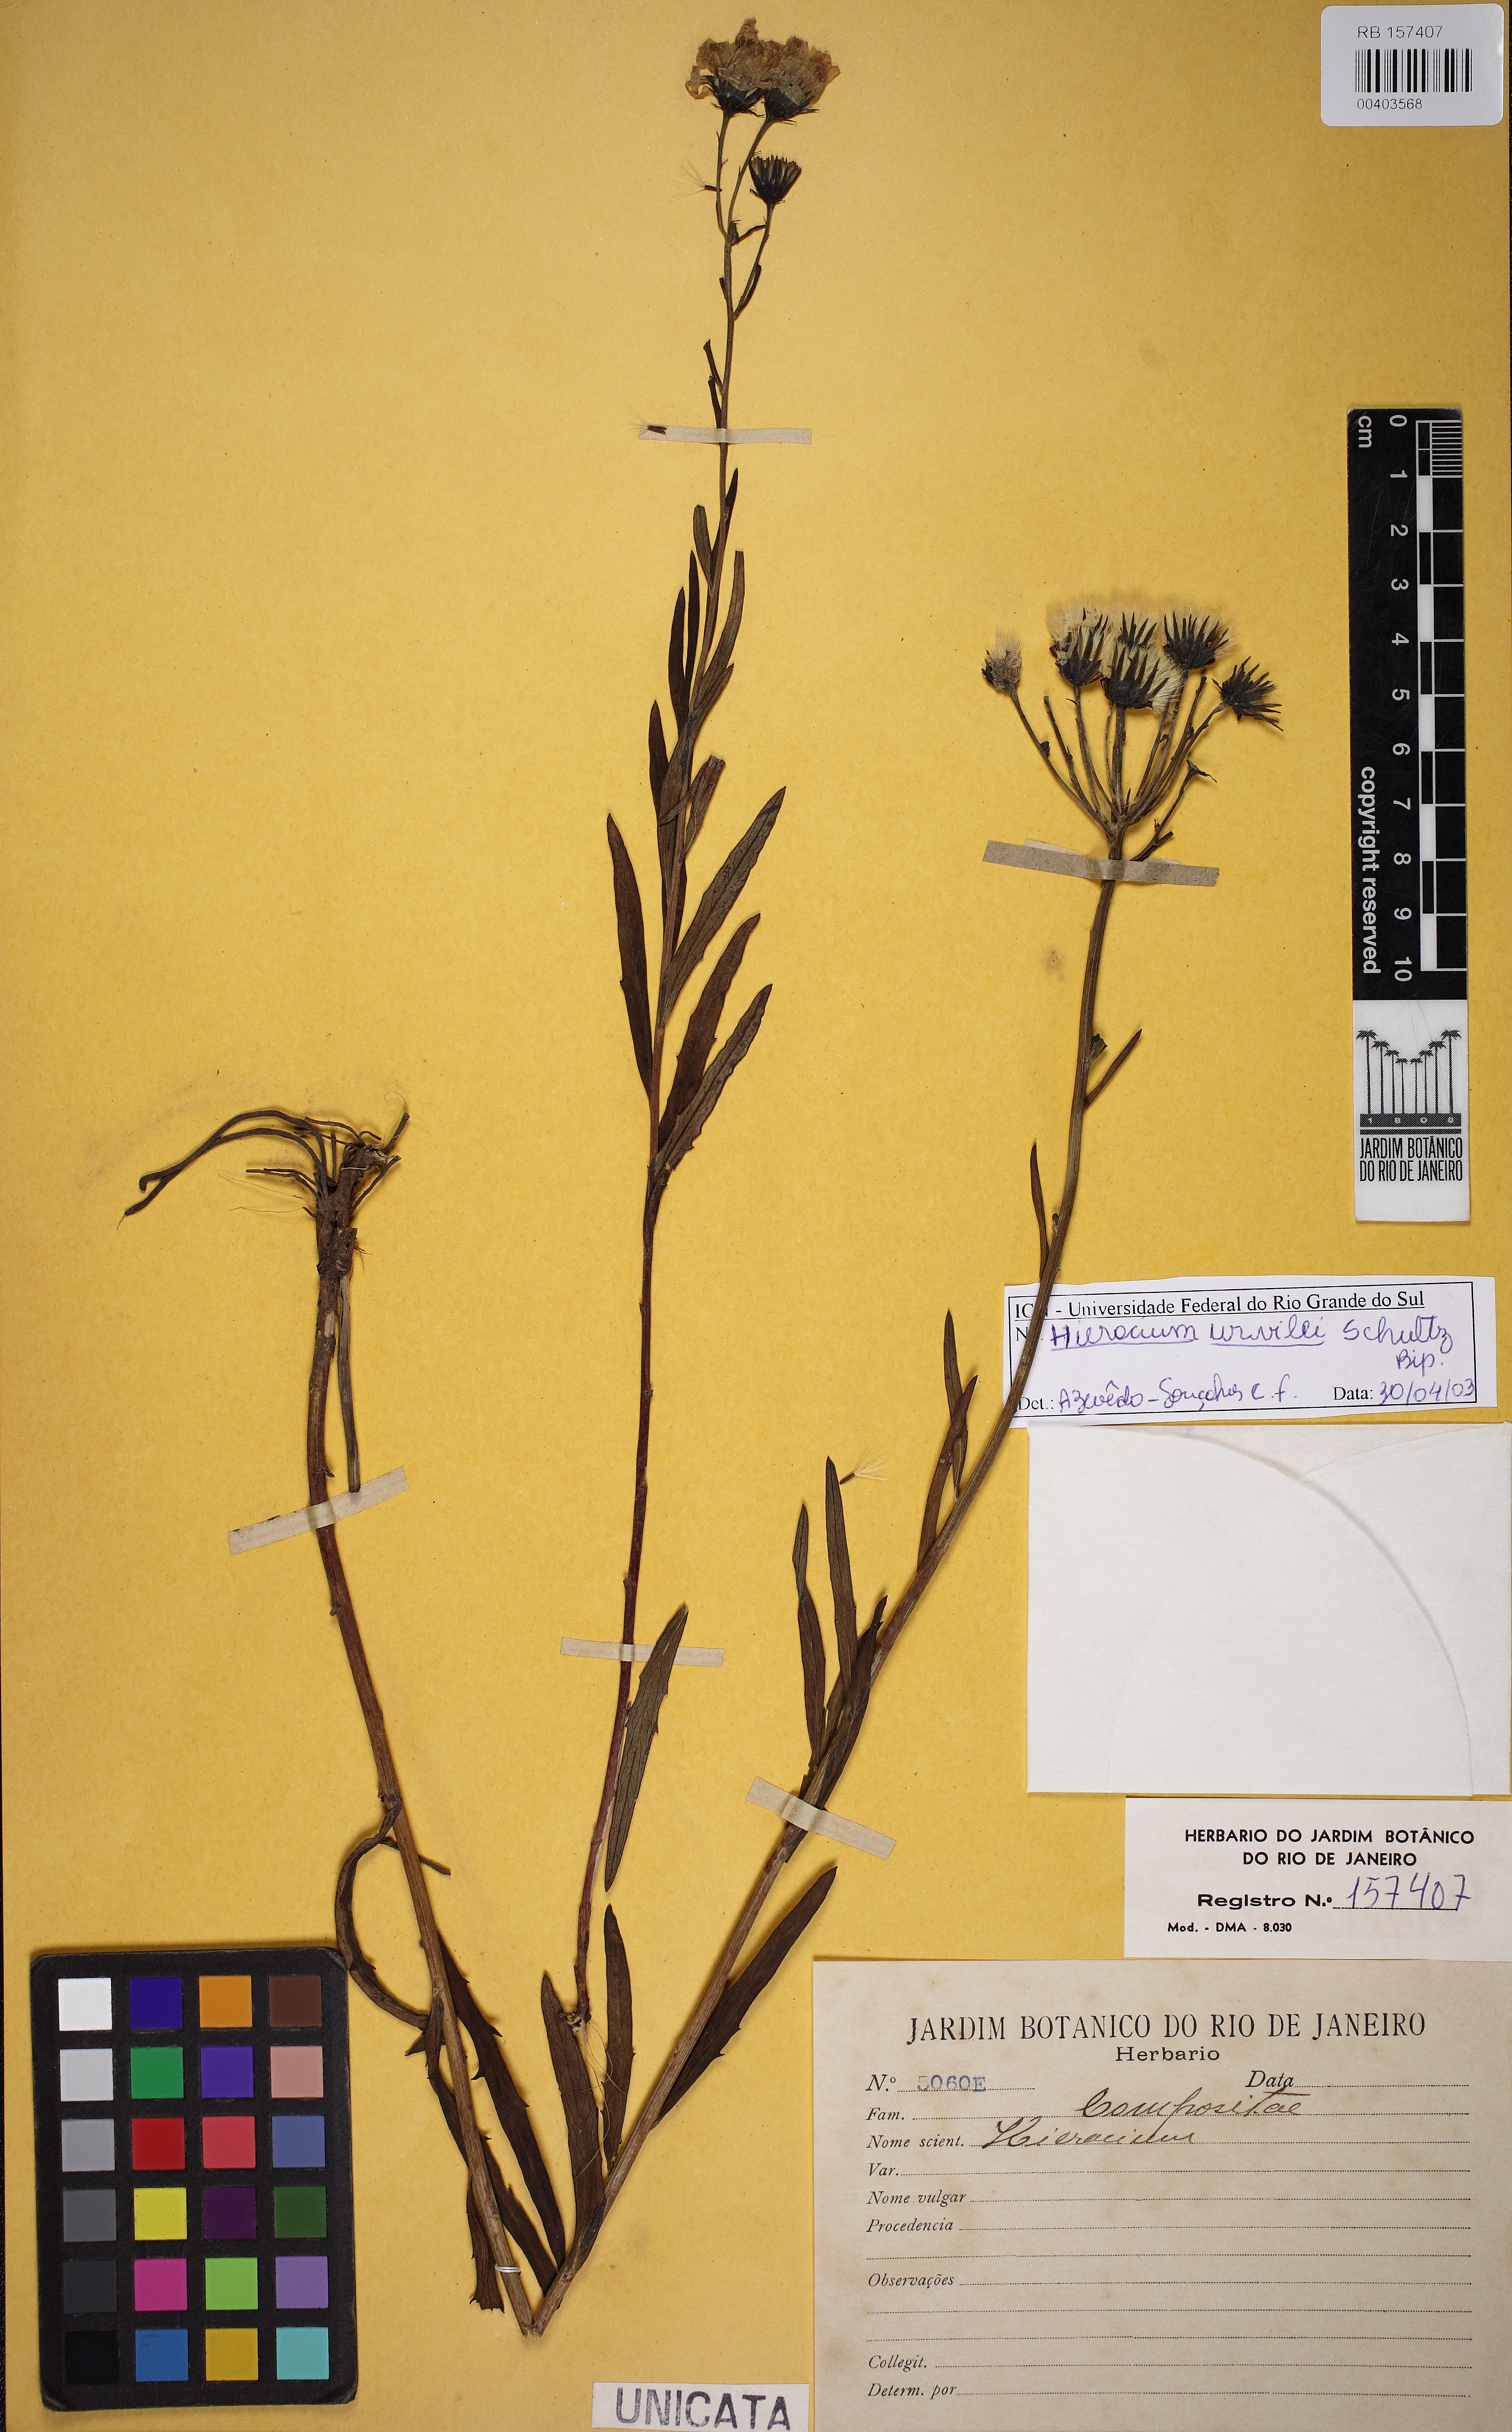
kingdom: Plantae
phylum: Tracheophyta
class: Magnoliopsida
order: Asterales
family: Asteraceae
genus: Hieracium
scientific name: Hieracium urvillei
